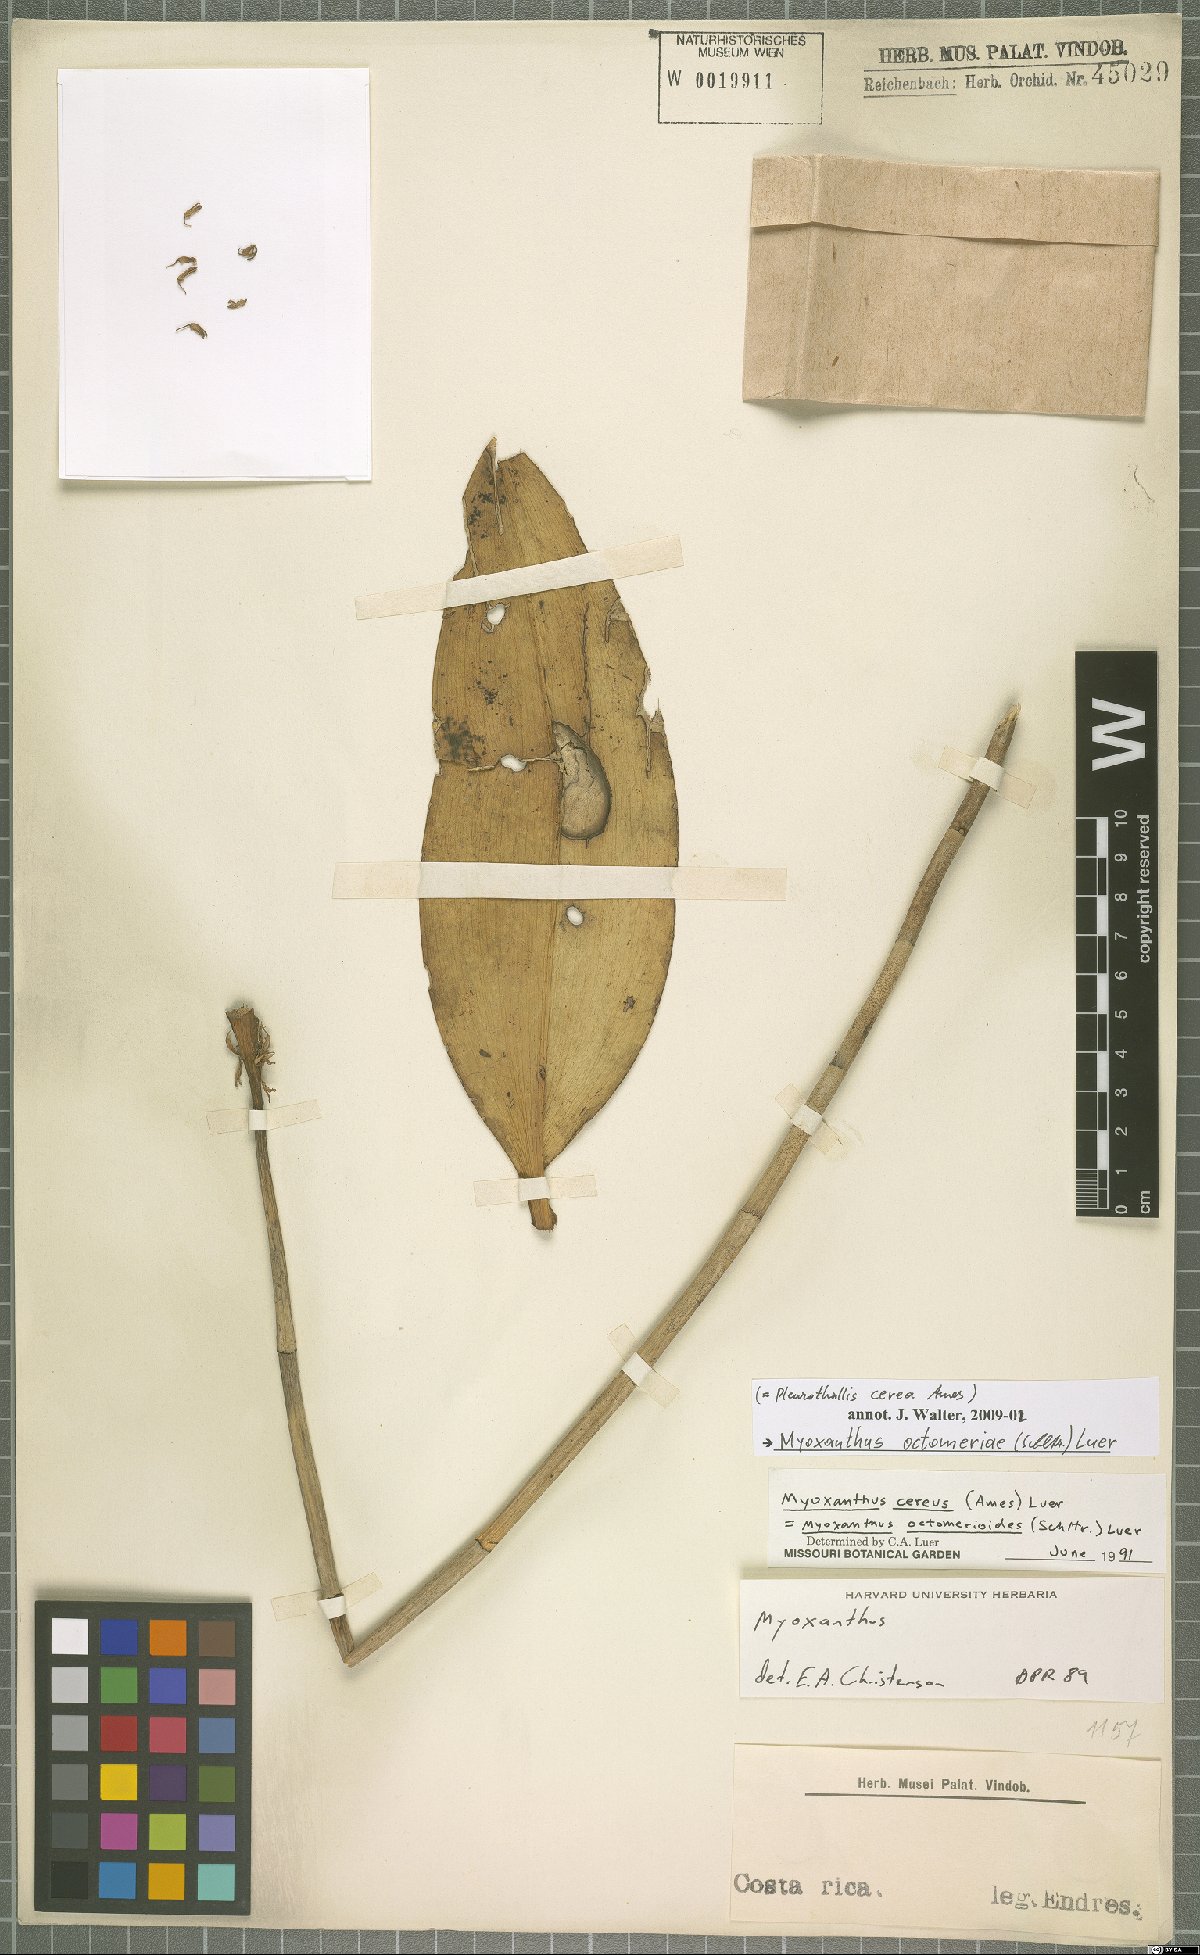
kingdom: Plantae
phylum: Tracheophyta
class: Liliopsida
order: Asparagales
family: Orchidaceae
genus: Myoxanthus
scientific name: Myoxanthus congestus
